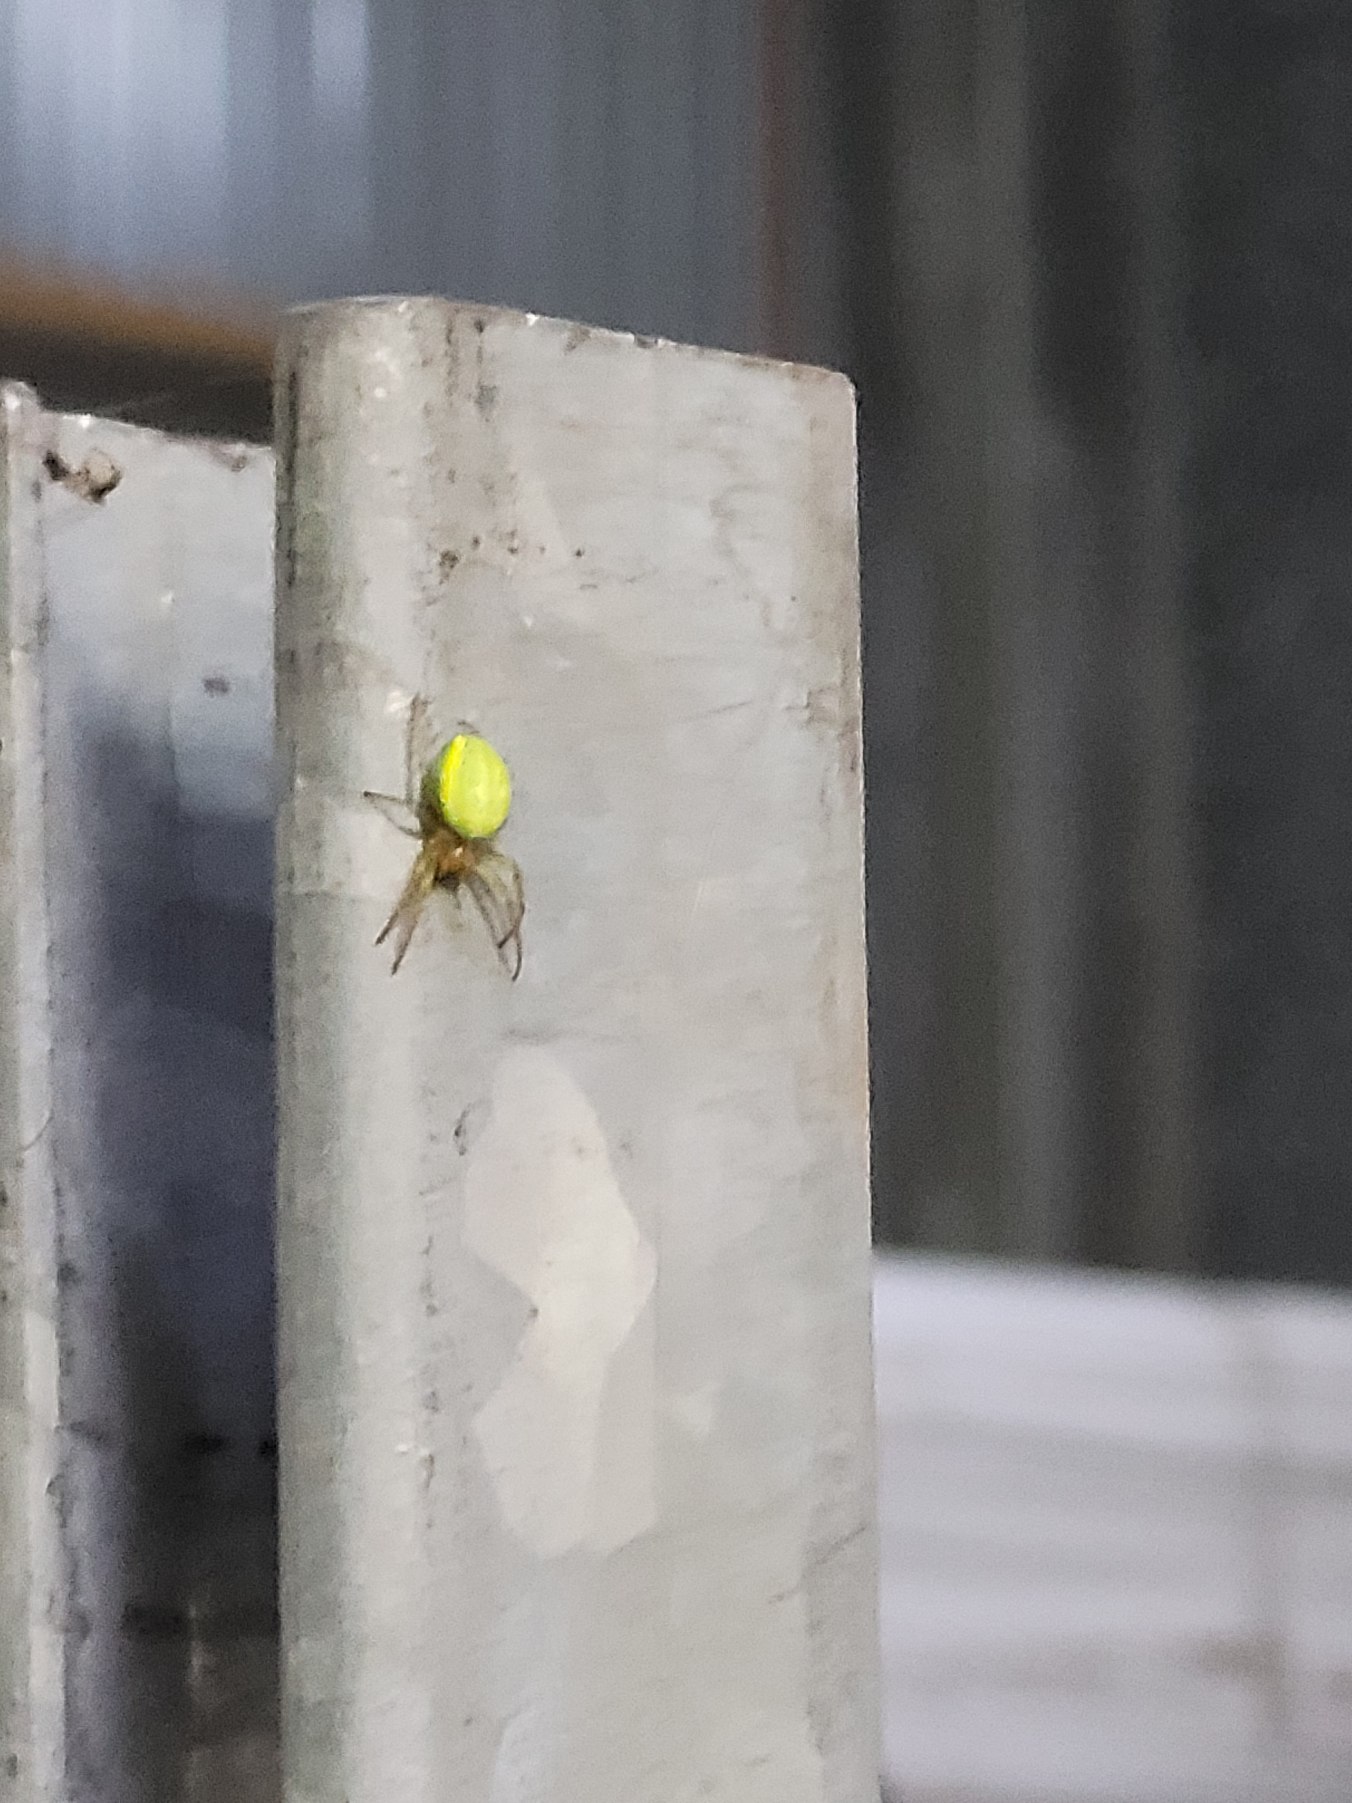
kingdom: Animalia
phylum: Arthropoda
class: Arachnida
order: Araneae
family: Araneidae
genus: Araniella
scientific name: Araniella
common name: Agurkeedderkopslægten
